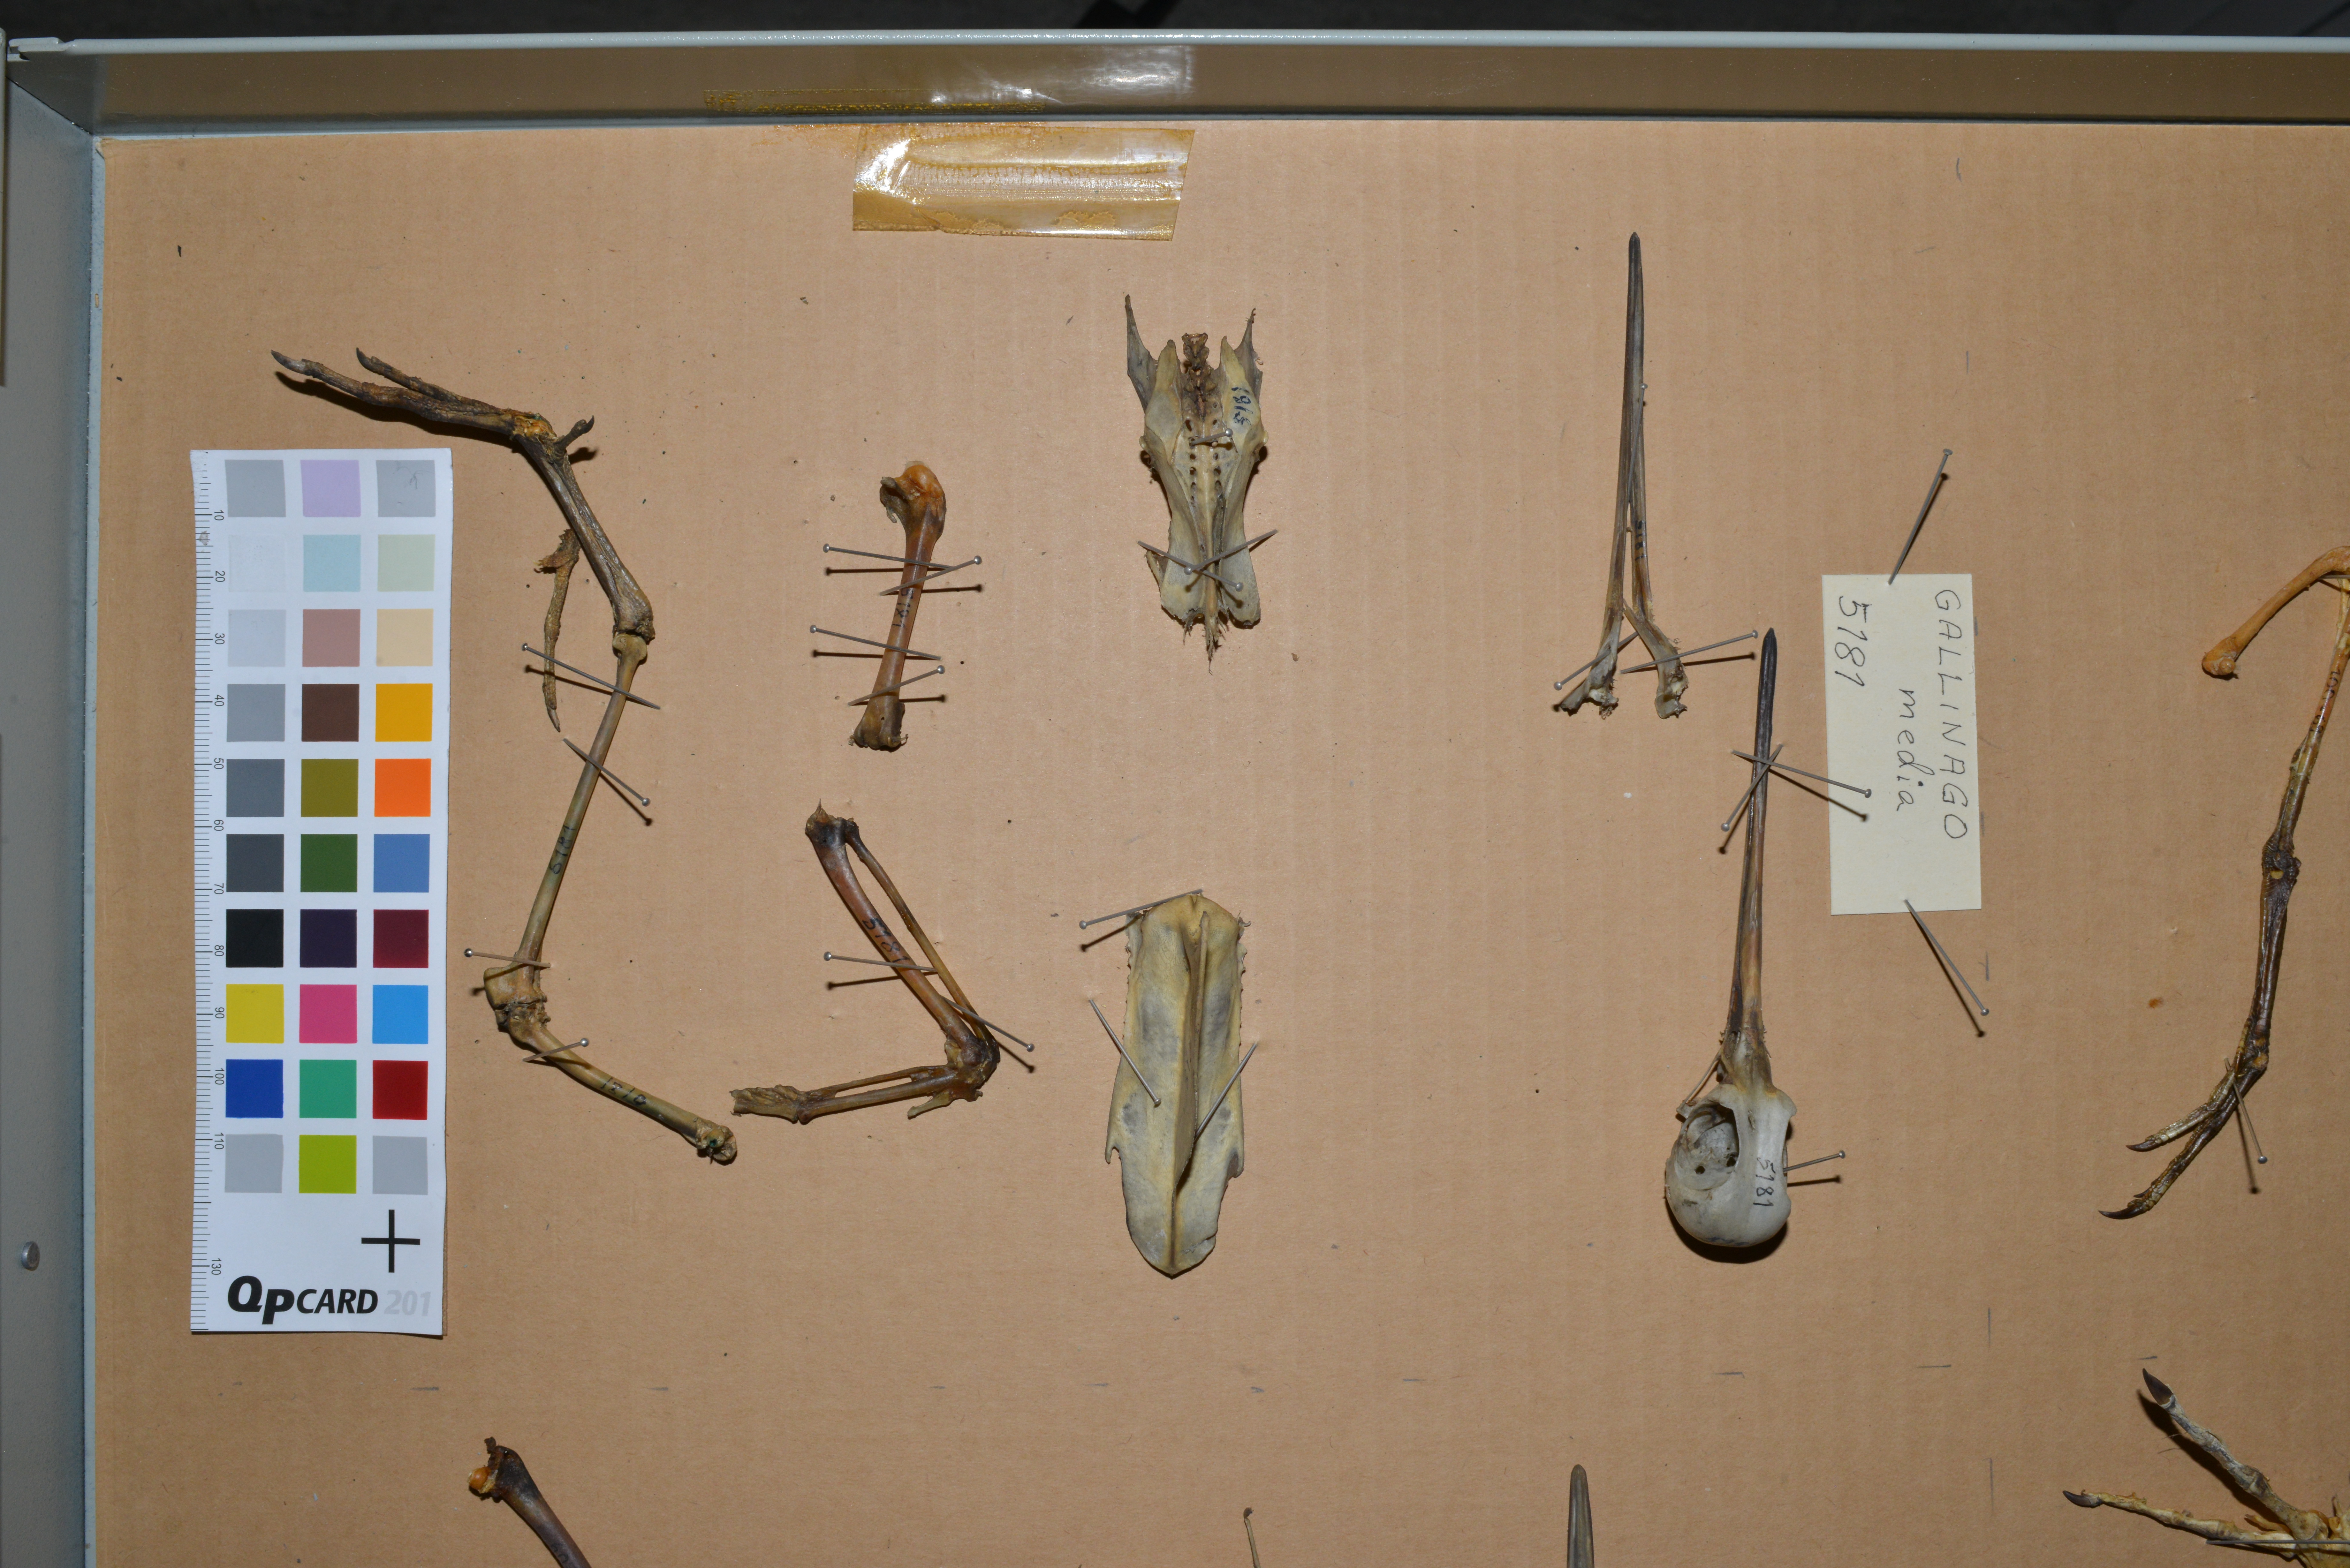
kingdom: Animalia
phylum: Chordata
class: Aves
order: Charadriiformes
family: Scolopacidae
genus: Gallinago
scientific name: Gallinago media
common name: Great snipe
